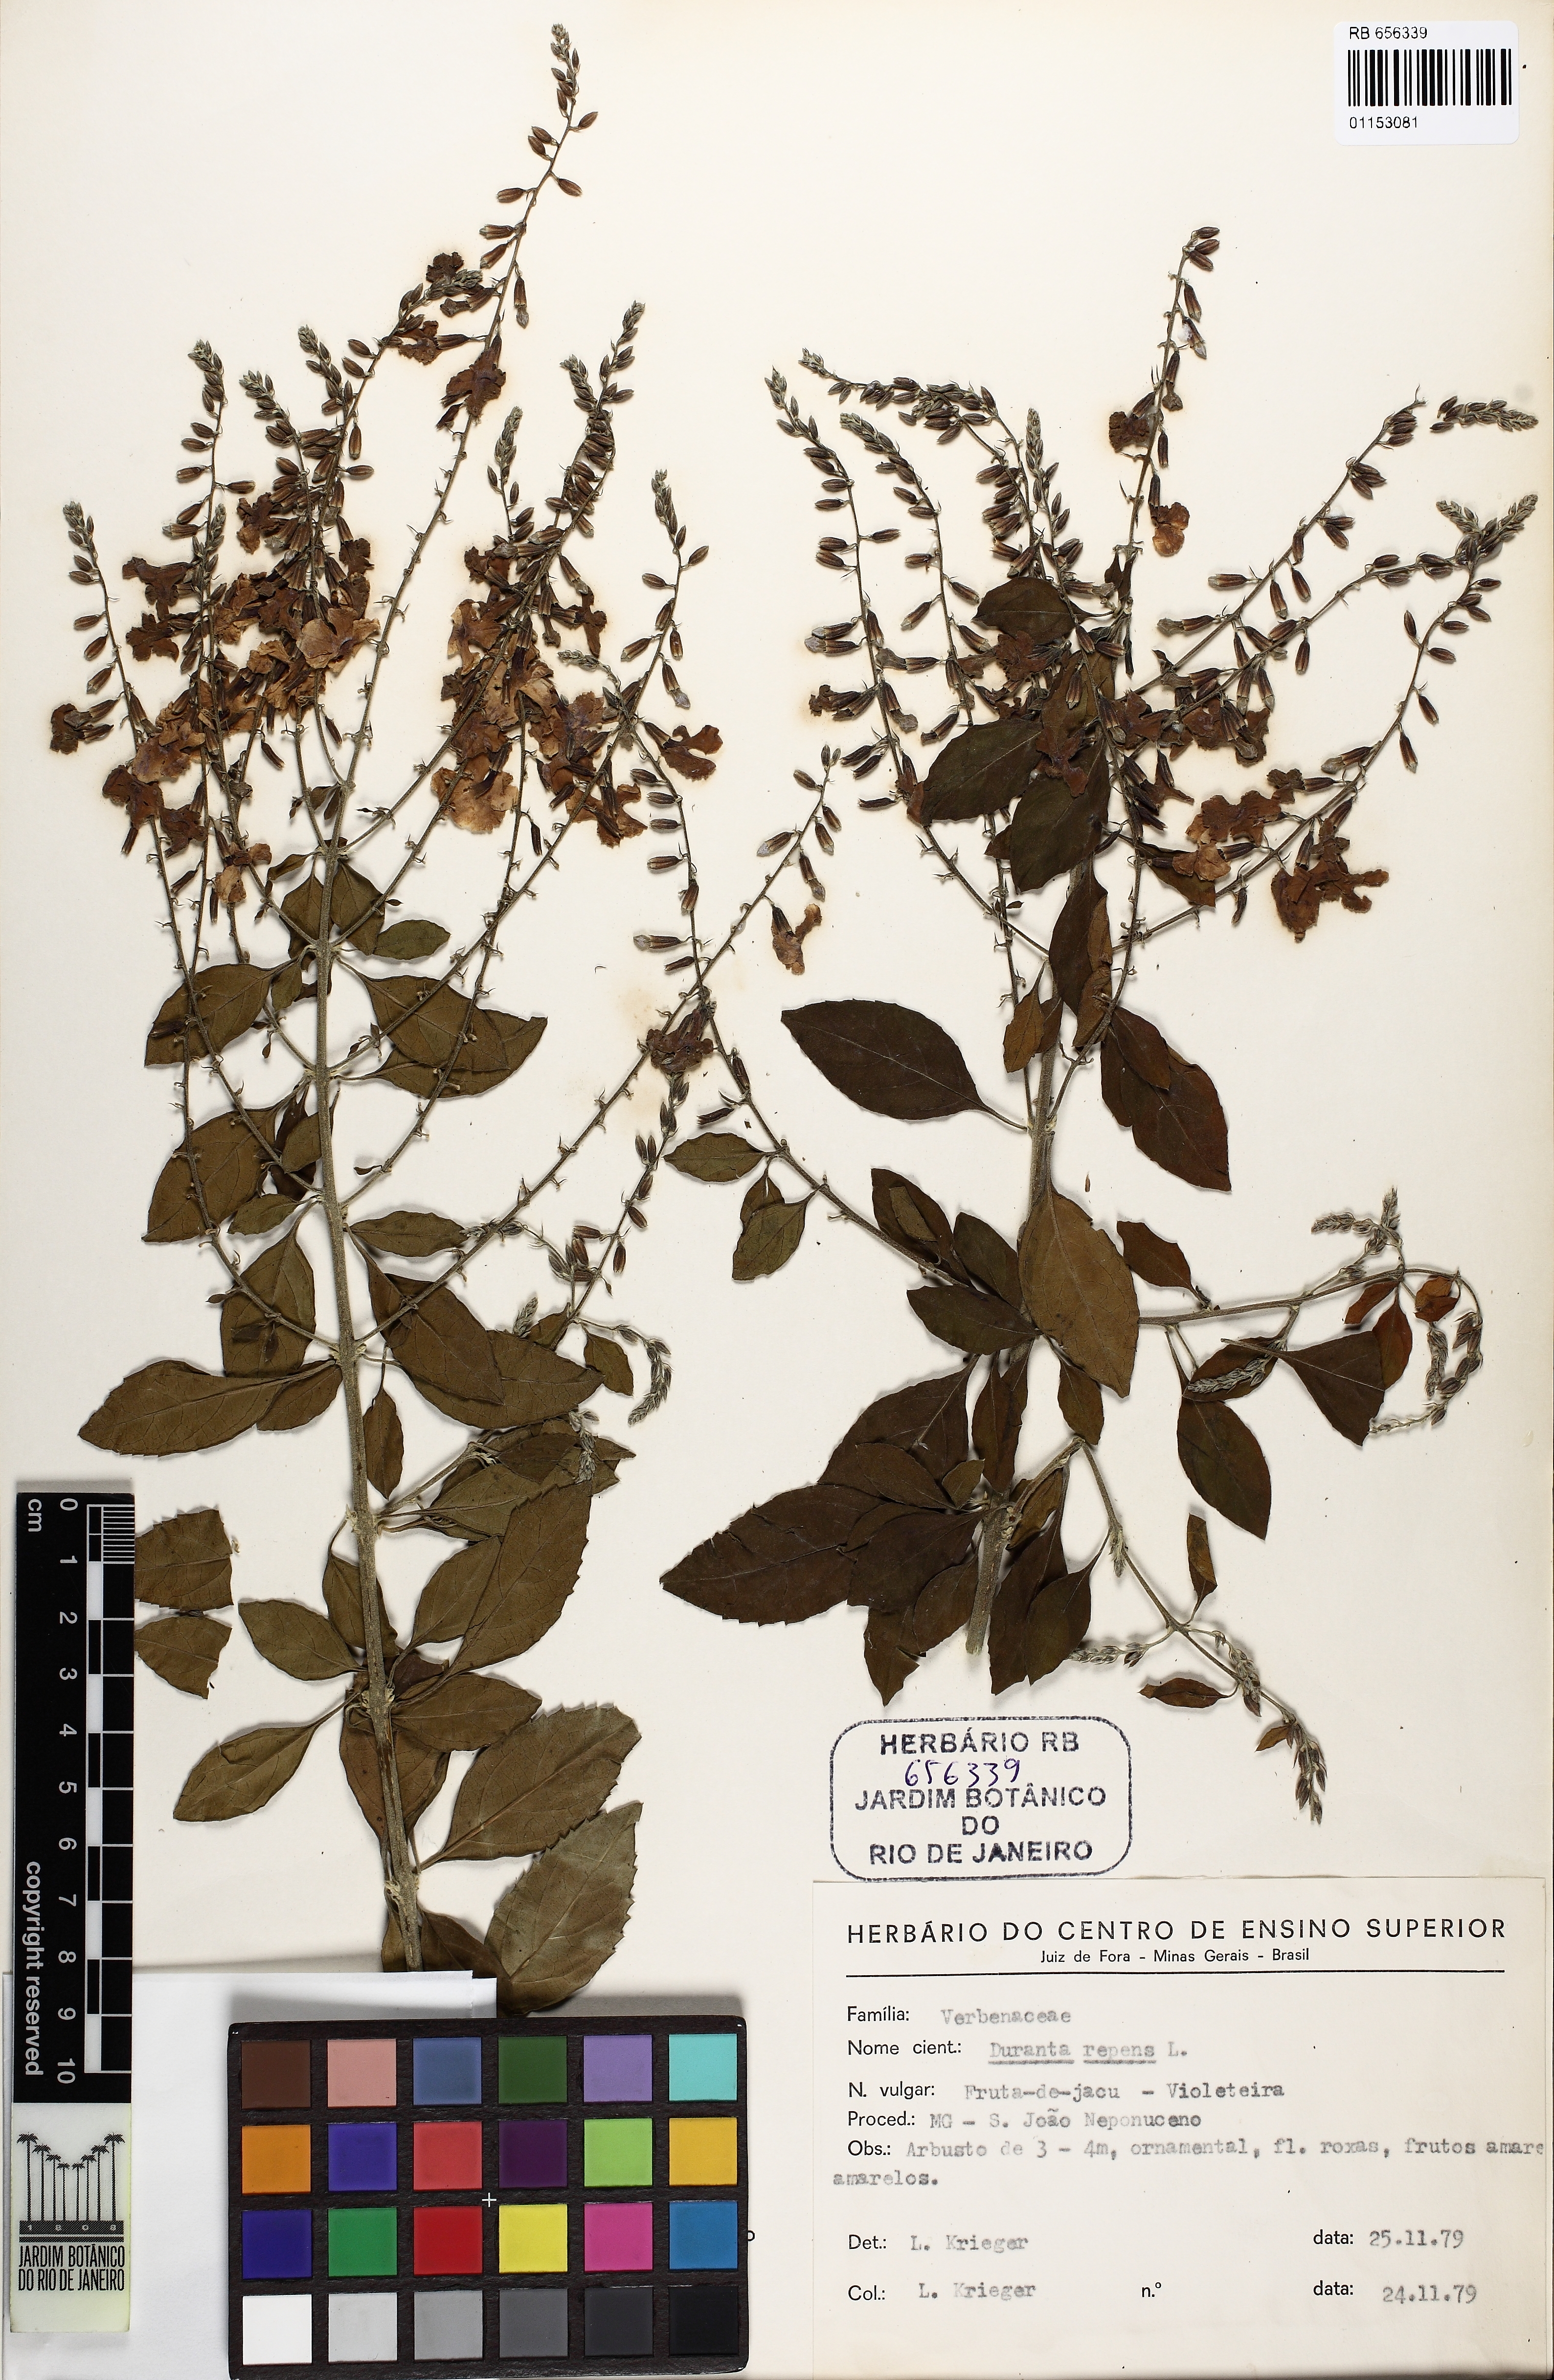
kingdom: Plantae
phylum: Tracheophyta
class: Magnoliopsida
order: Lamiales
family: Verbenaceae
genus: Duranta
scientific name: Duranta erecta
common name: Golden dewdrops
